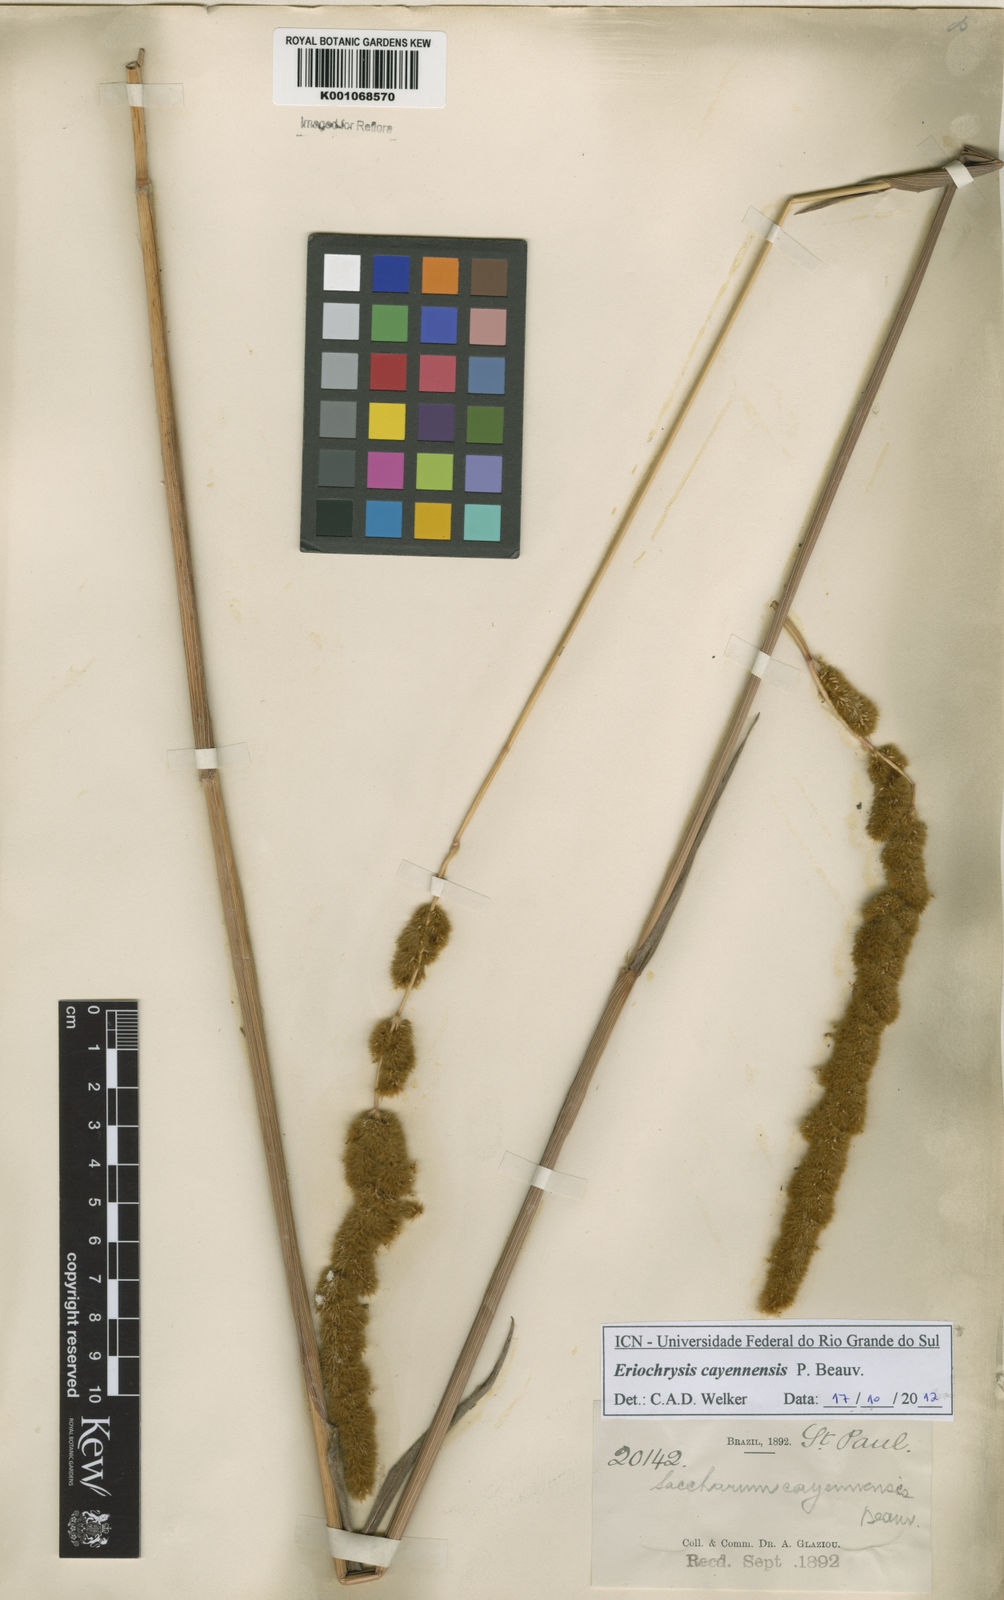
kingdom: Plantae
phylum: Tracheophyta
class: Liliopsida
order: Poales
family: Poaceae
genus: Eriochrysis
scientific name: Eriochrysis cayennensis
